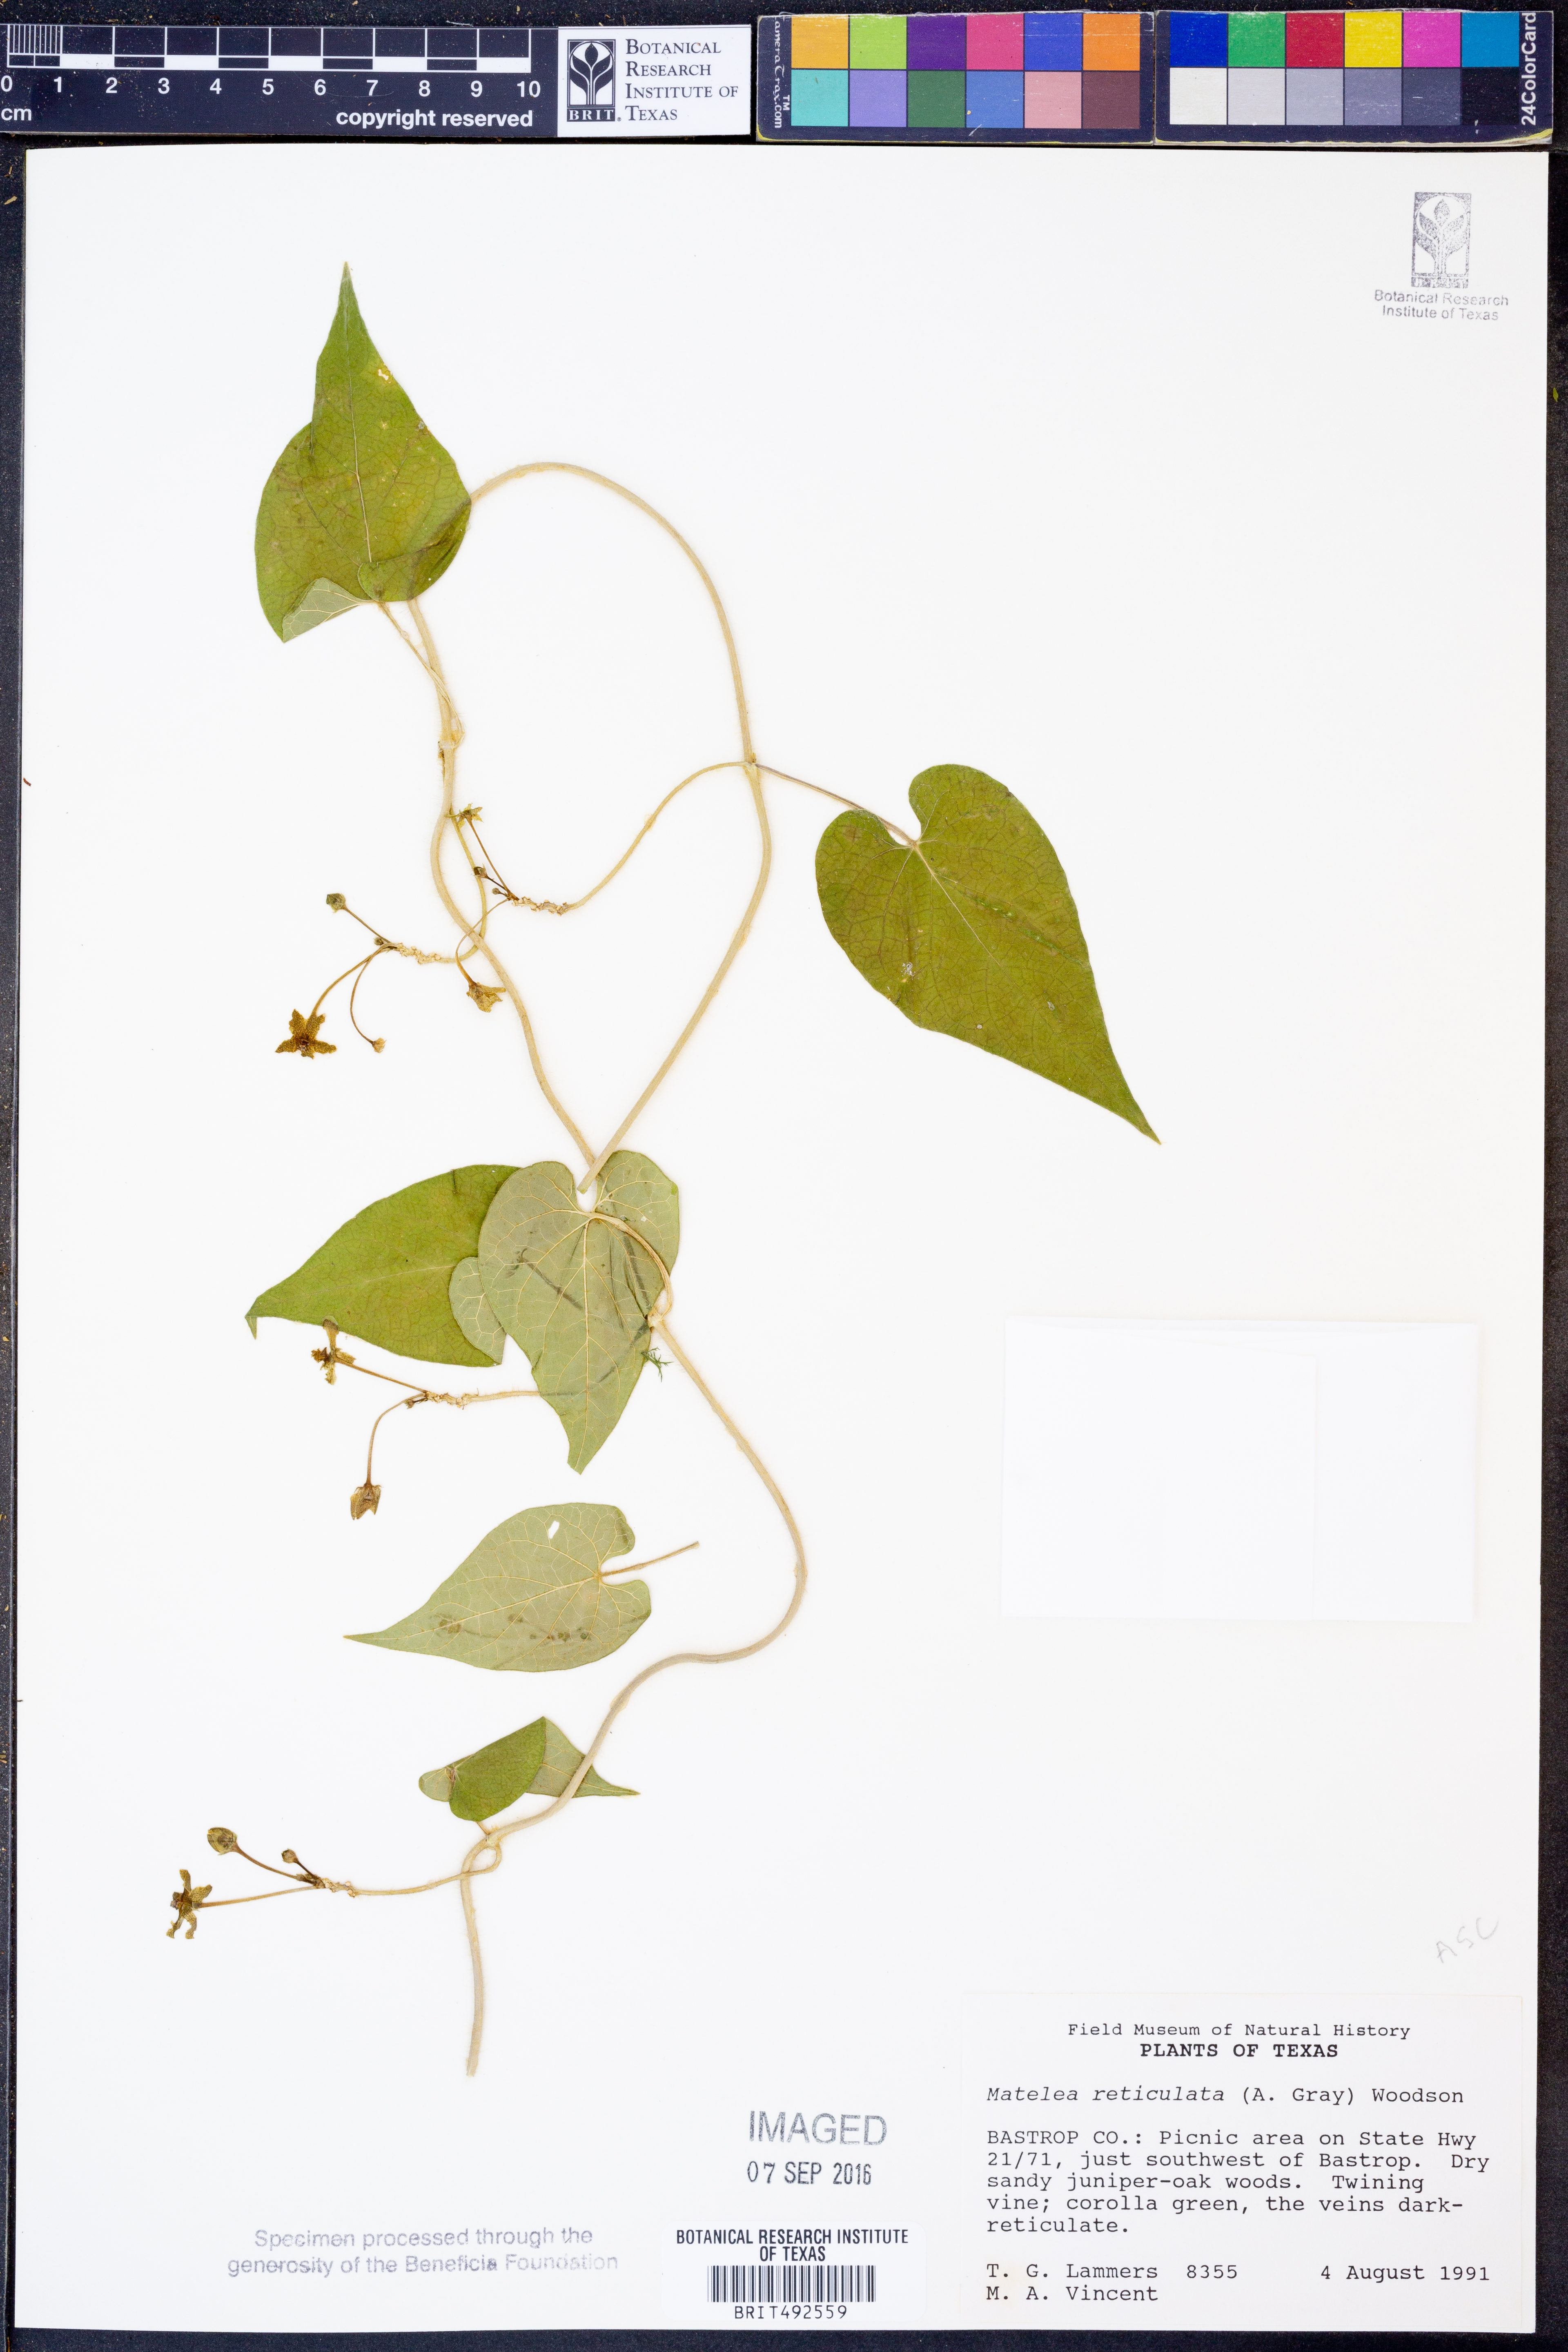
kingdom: Plantae
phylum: Tracheophyta
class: Magnoliopsida
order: Gentianales
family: Apocynaceae
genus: Dictyanthus
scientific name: Dictyanthus reticulatus
